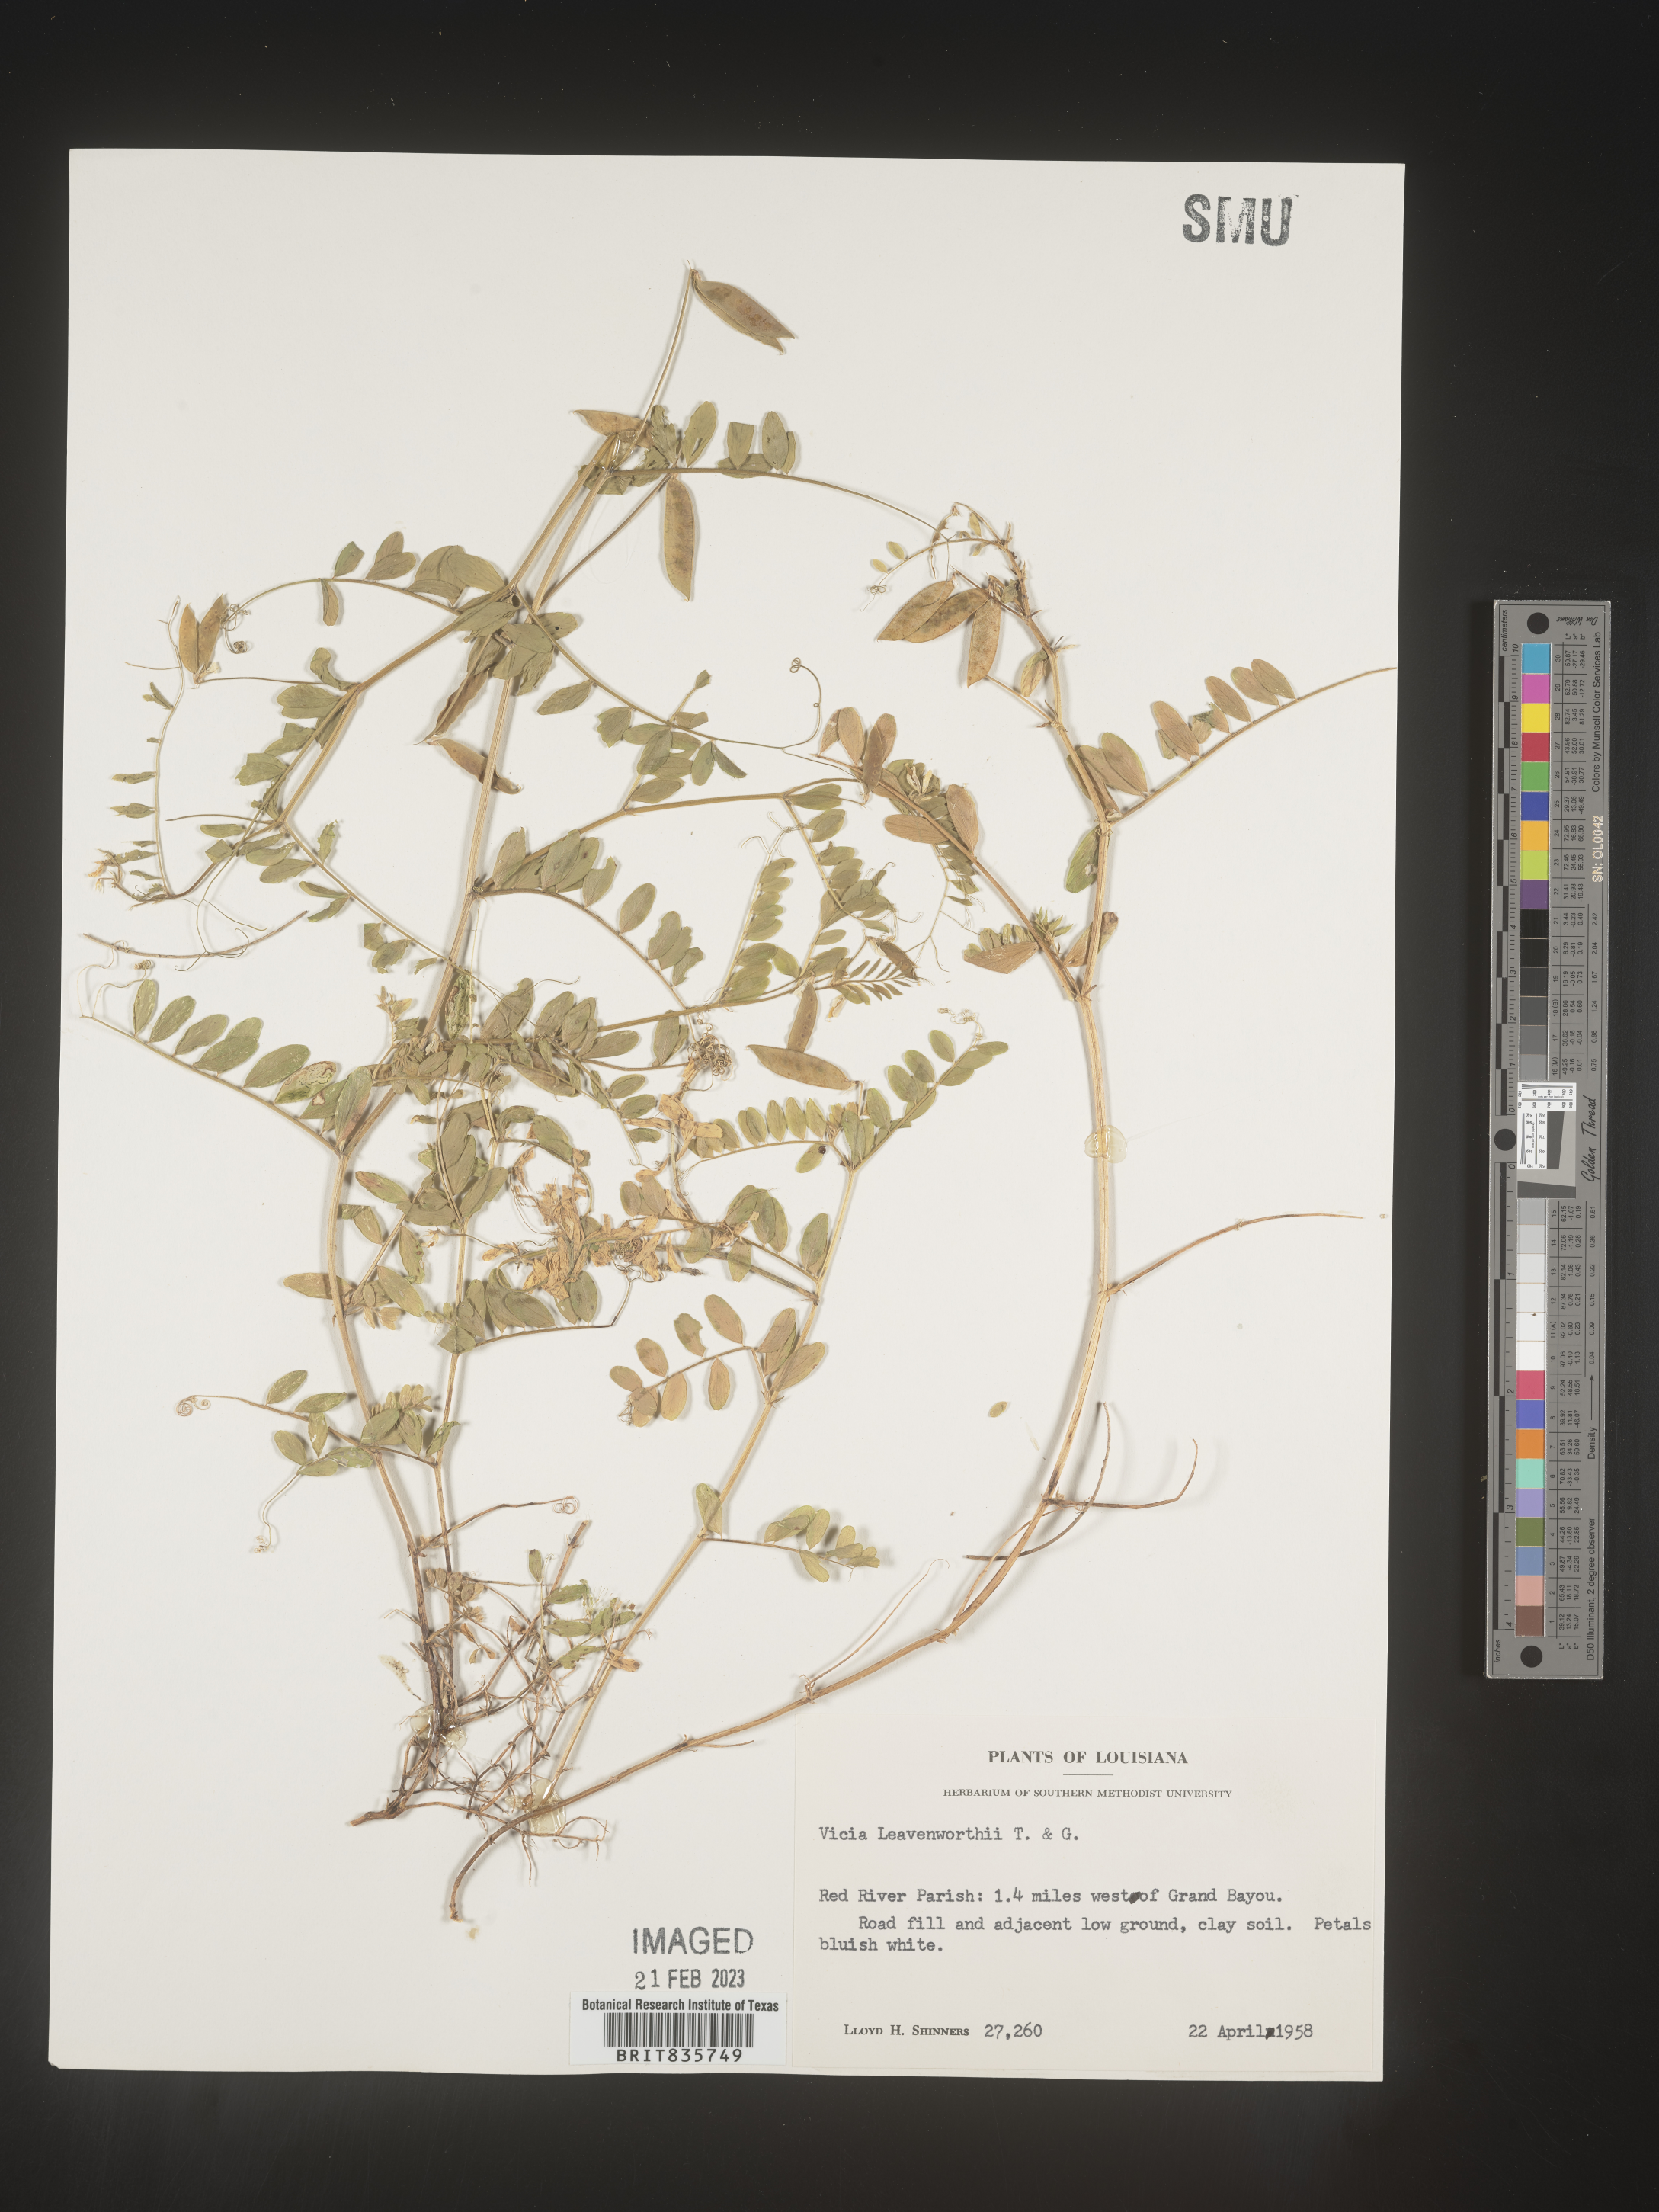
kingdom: Plantae
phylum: Tracheophyta
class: Magnoliopsida
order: Fabales
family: Fabaceae
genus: Vicia
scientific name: Vicia
